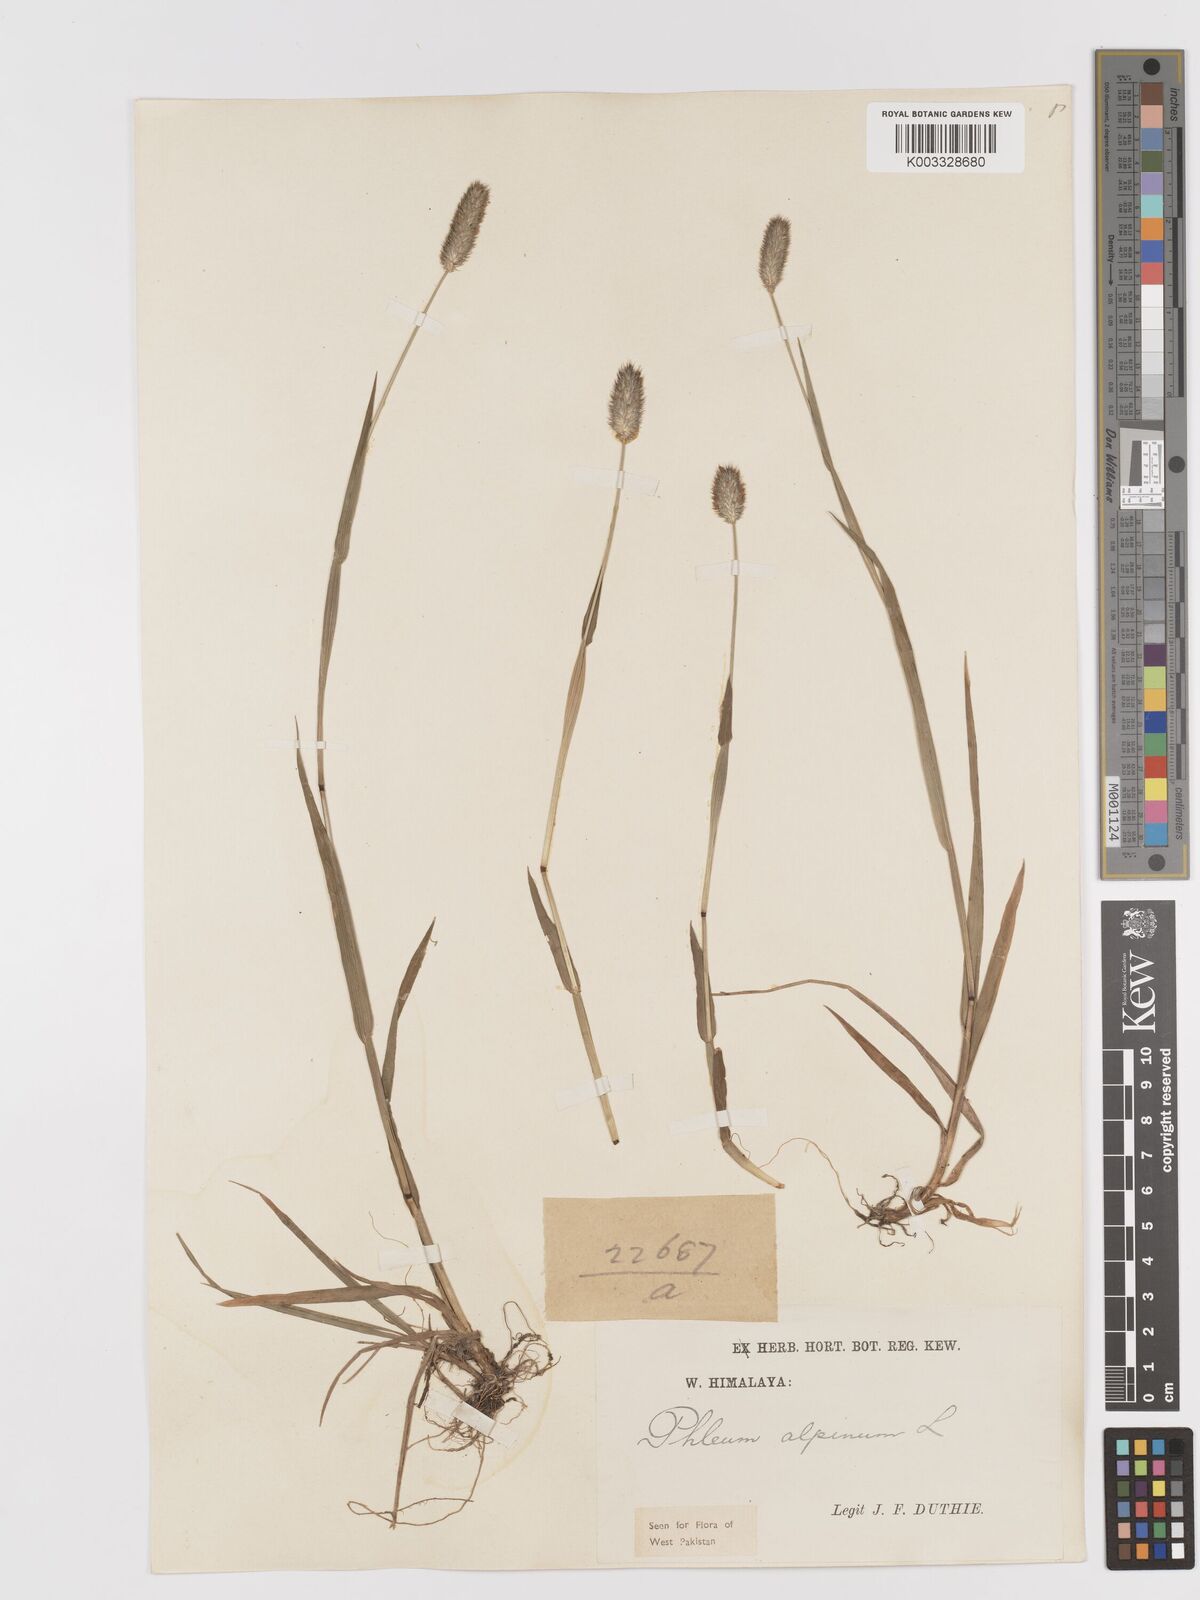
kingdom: Plantae
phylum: Tracheophyta
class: Liliopsida
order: Poales
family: Poaceae
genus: Phleum
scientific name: Phleum alpinum
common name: Alpine cat's-tail
